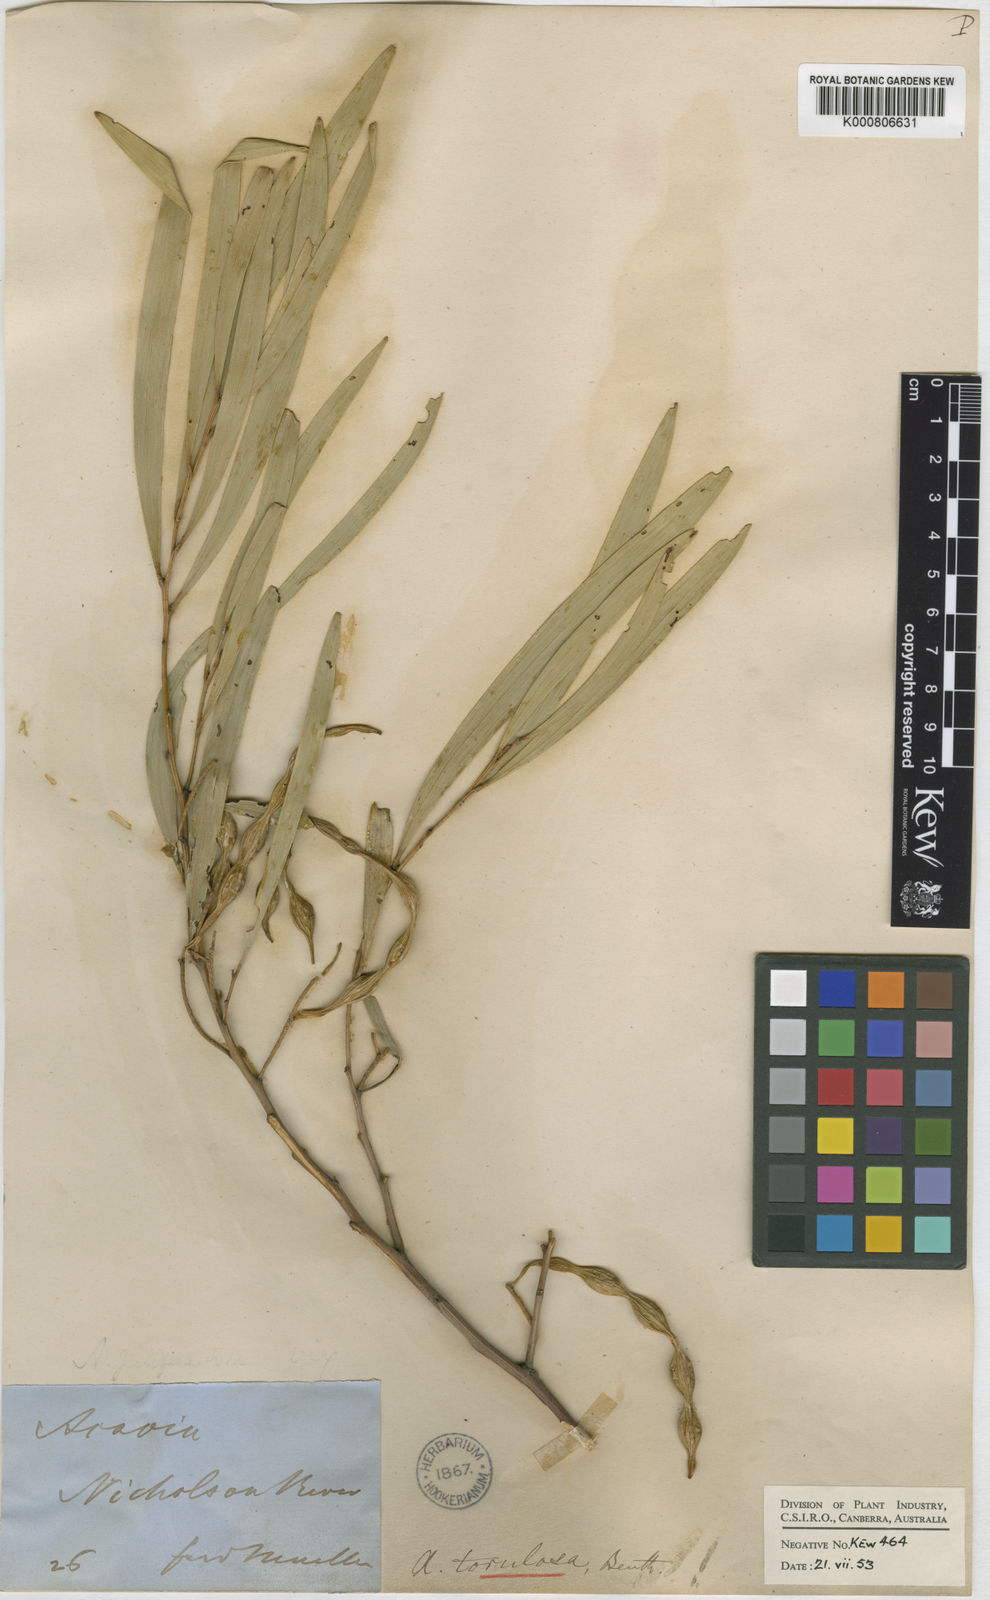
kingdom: Plantae
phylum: Tracheophyta
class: Magnoliopsida
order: Fabales
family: Fabaceae
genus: Acacia
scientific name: Acacia torulosa
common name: Torulosa wattle
